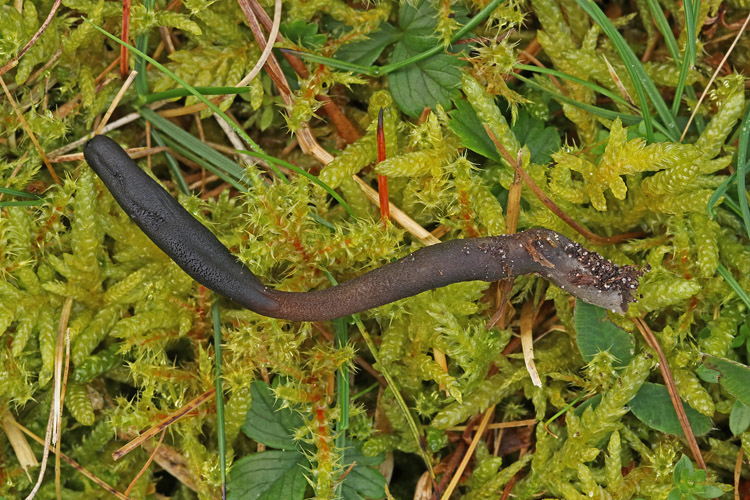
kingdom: Fungi
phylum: Ascomycota
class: Geoglossomycetes
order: Geoglossales
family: Geoglossaceae
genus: Geoglossum
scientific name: Geoglossum fallax
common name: småskællet jordtunge
